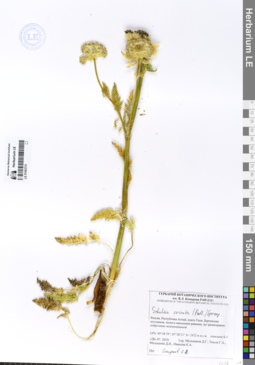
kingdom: Plantae
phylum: Tracheophyta
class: Magnoliopsida
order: Apiales
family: Apiaceae
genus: Schulzia
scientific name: Schulzia crinita
